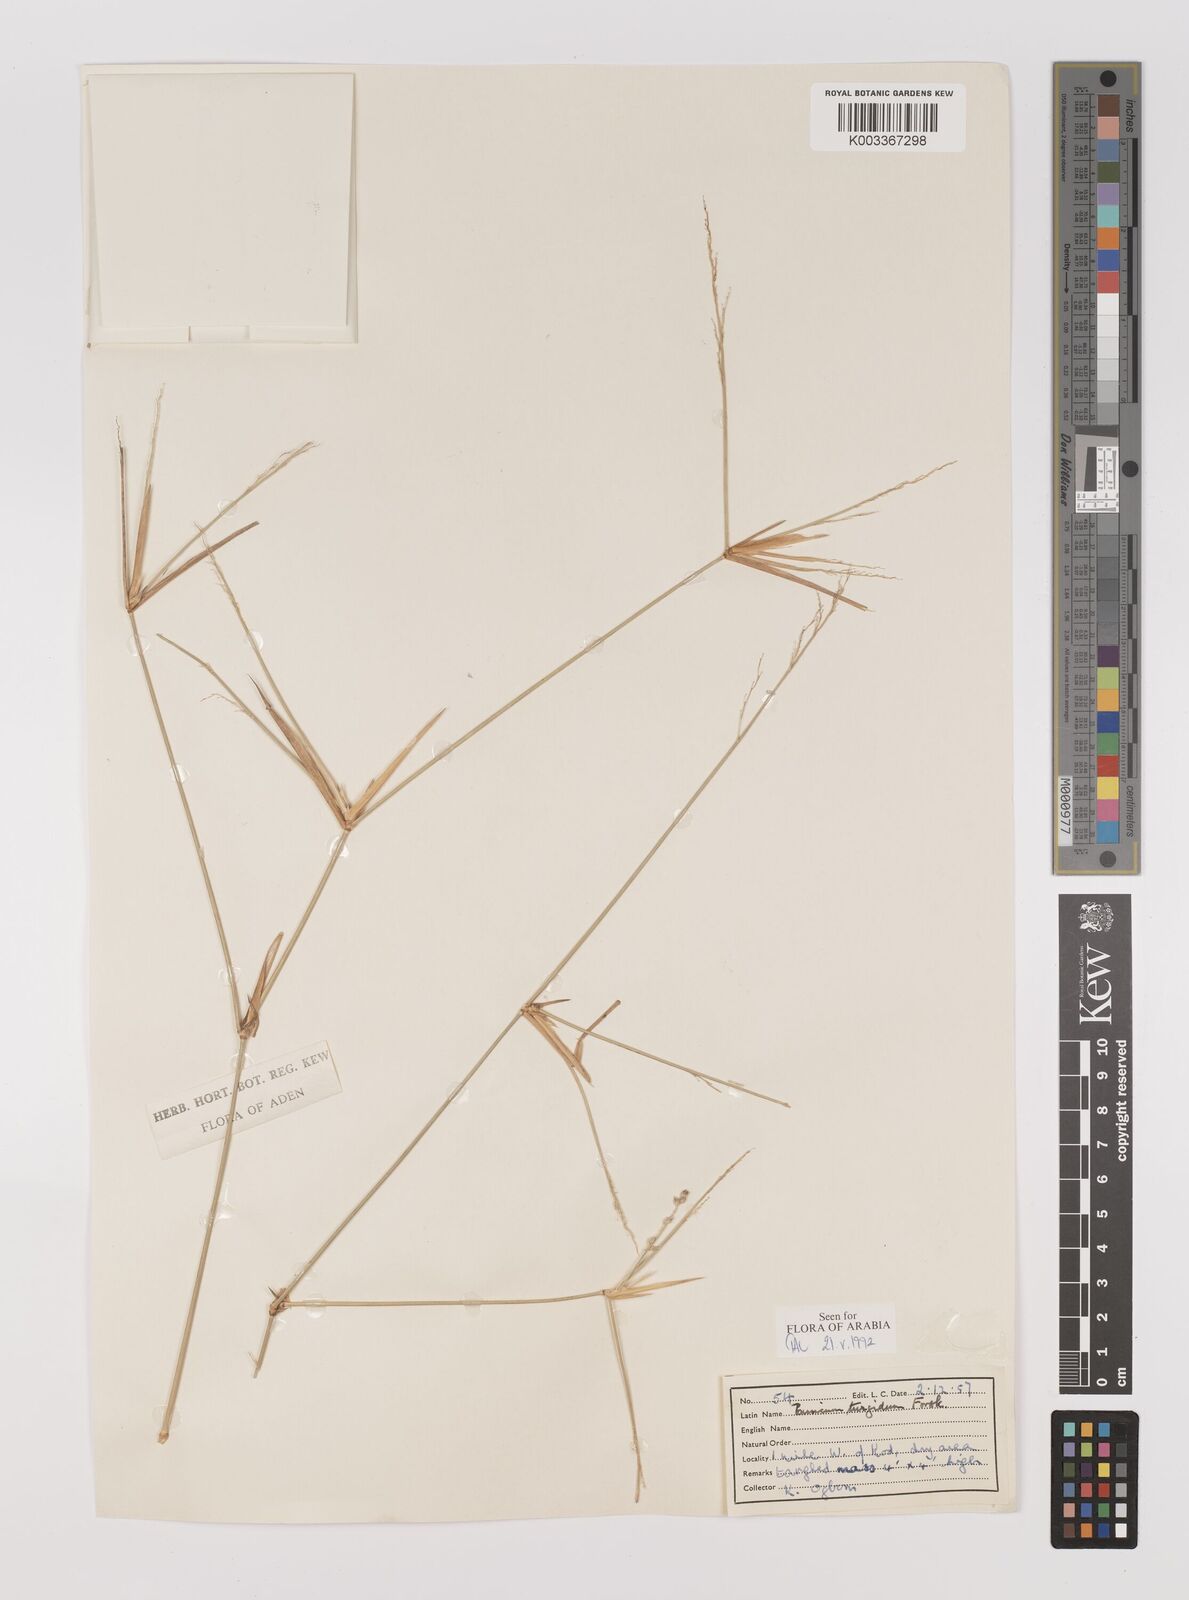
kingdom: Plantae
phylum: Tracheophyta
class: Liliopsida
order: Poales
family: Poaceae
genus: Panicum
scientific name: Panicum turgidum
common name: Desert grass
